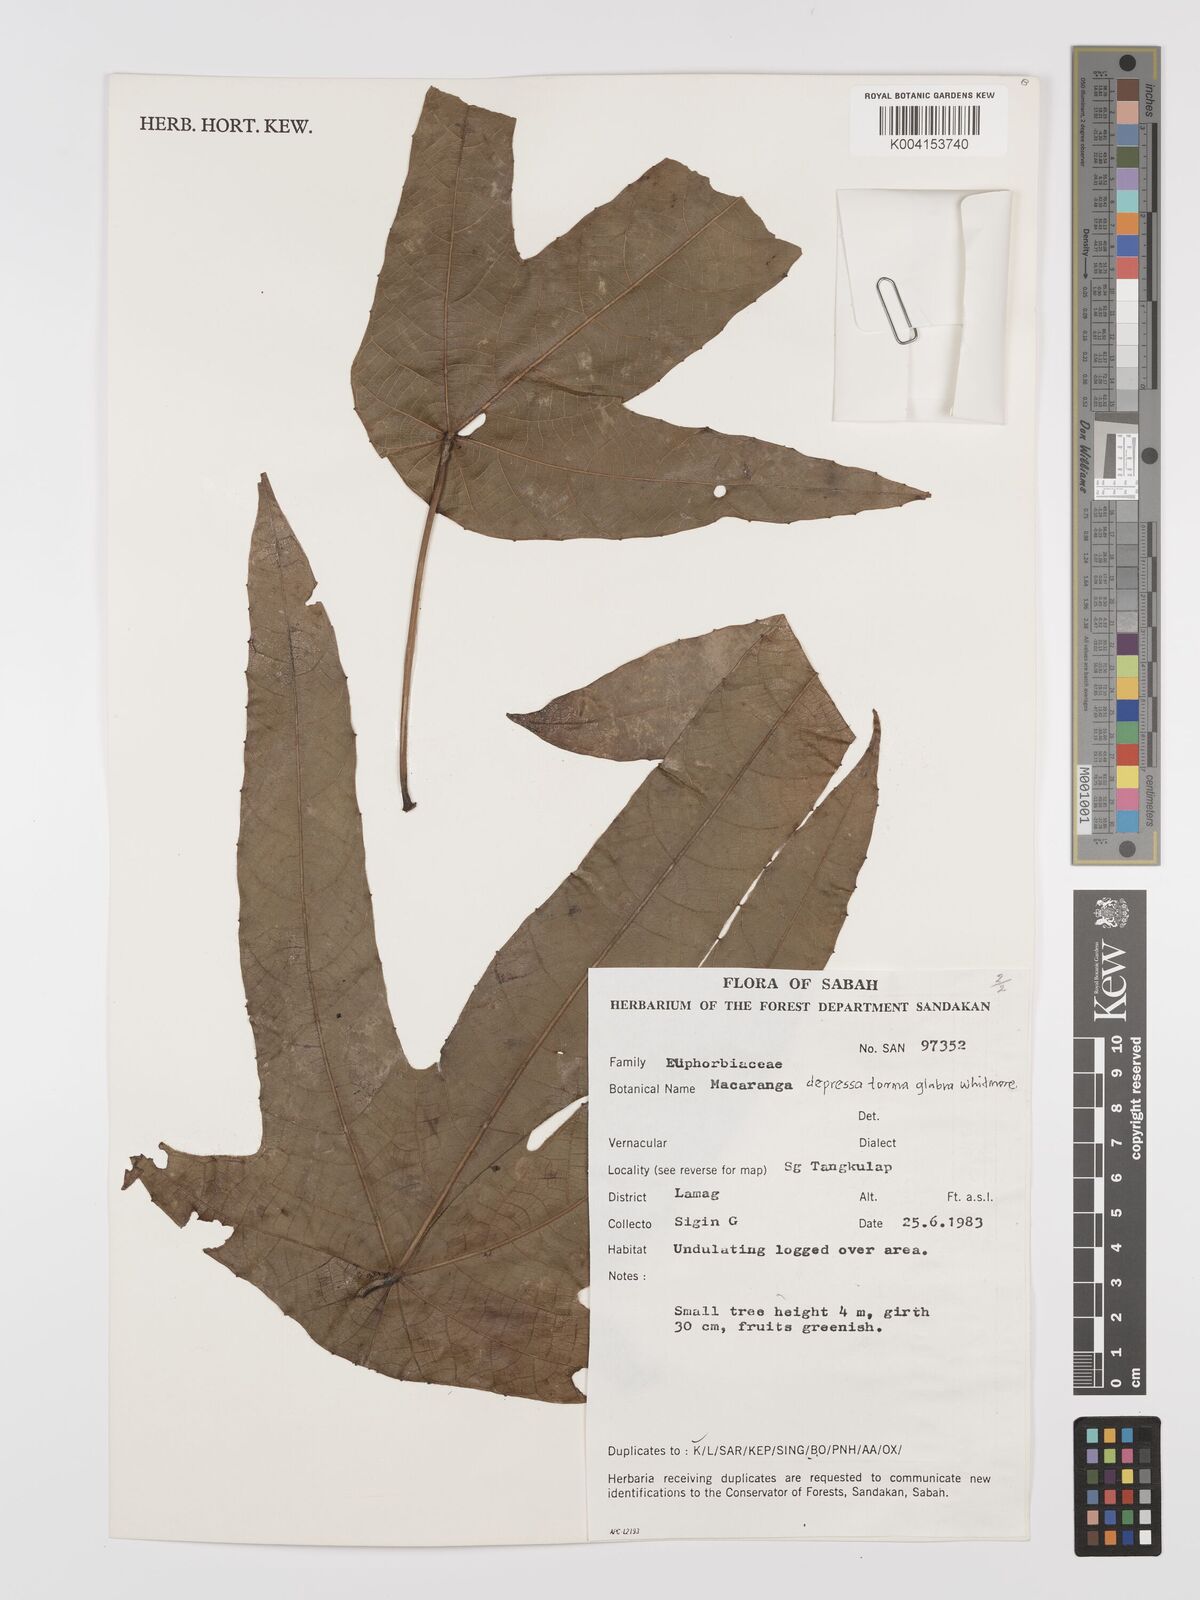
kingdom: Plantae
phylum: Tracheophyta
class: Magnoliopsida
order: Malpighiales
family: Euphorbiaceae
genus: Macaranga
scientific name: Macaranga depressa
